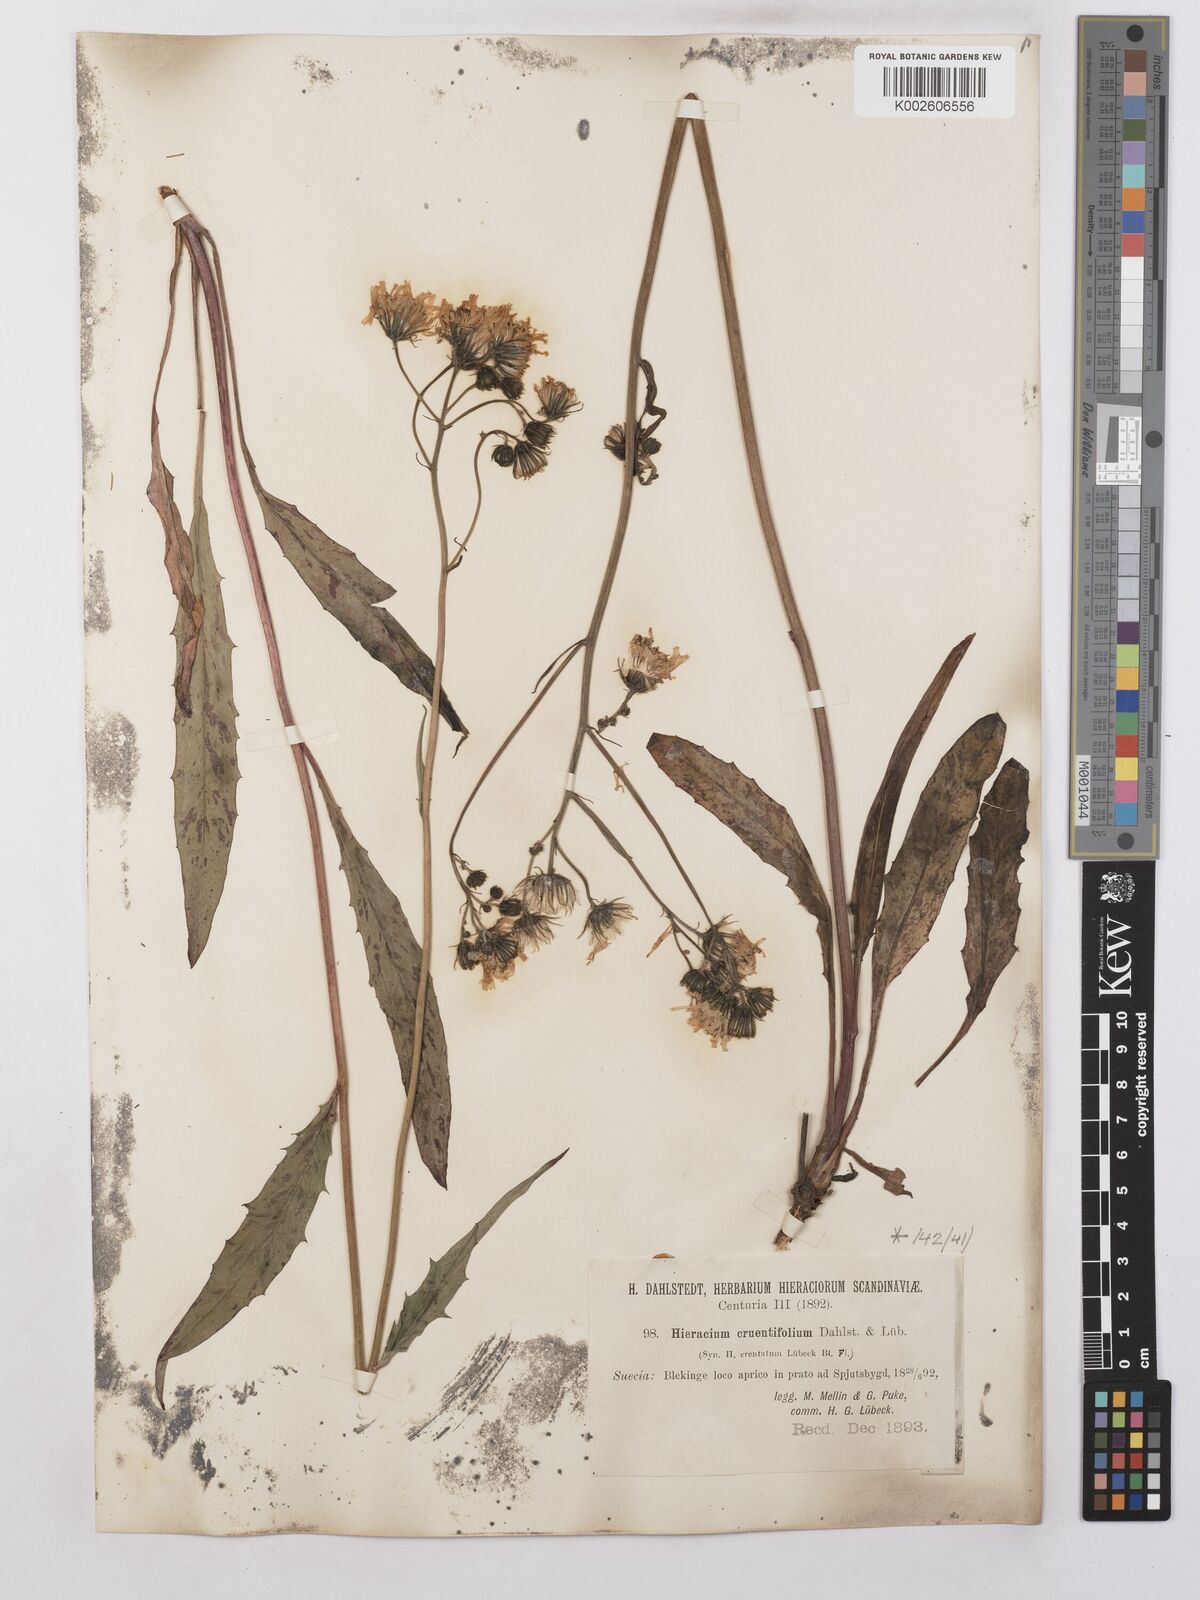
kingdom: Plantae
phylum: Tracheophyta
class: Magnoliopsida
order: Asterales
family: Asteraceae
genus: Hieracium
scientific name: Hieracium lachenalii
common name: Common hawkweed
